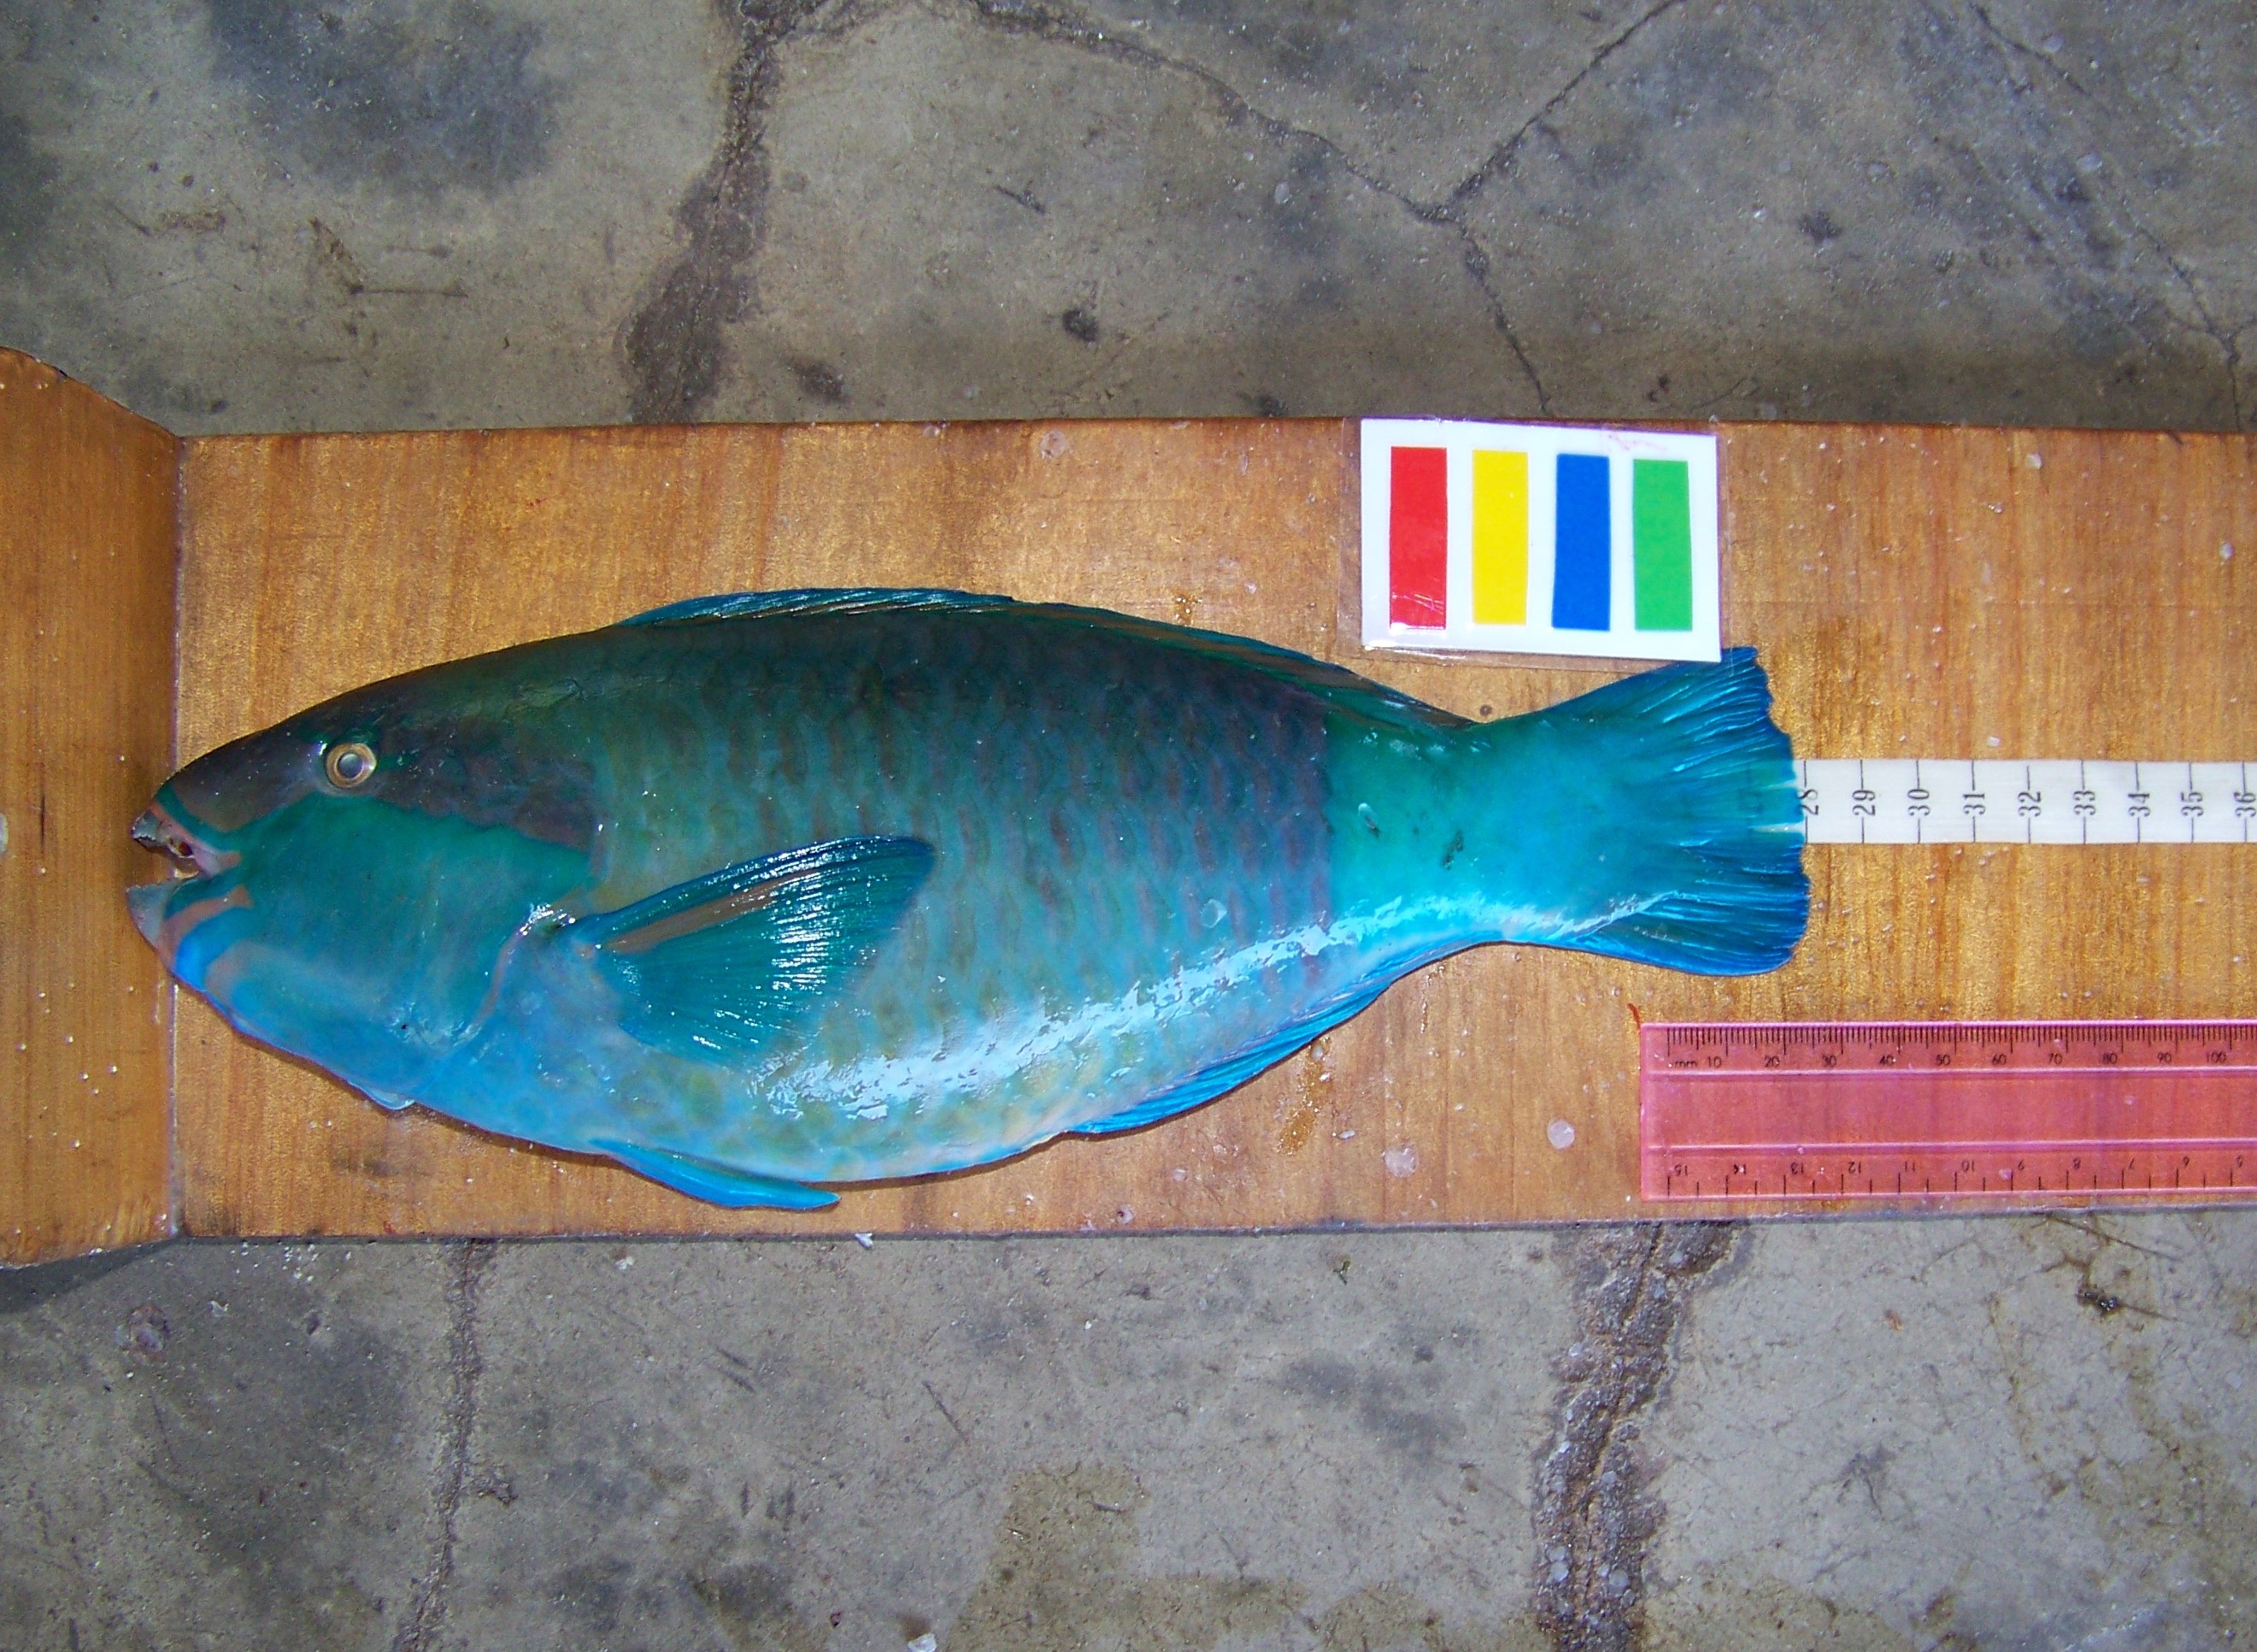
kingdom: Animalia
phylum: Chordata
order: Perciformes
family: Scaridae
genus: Chlorurus
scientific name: Chlorurus sordidus
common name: Bullethead parrotfish
